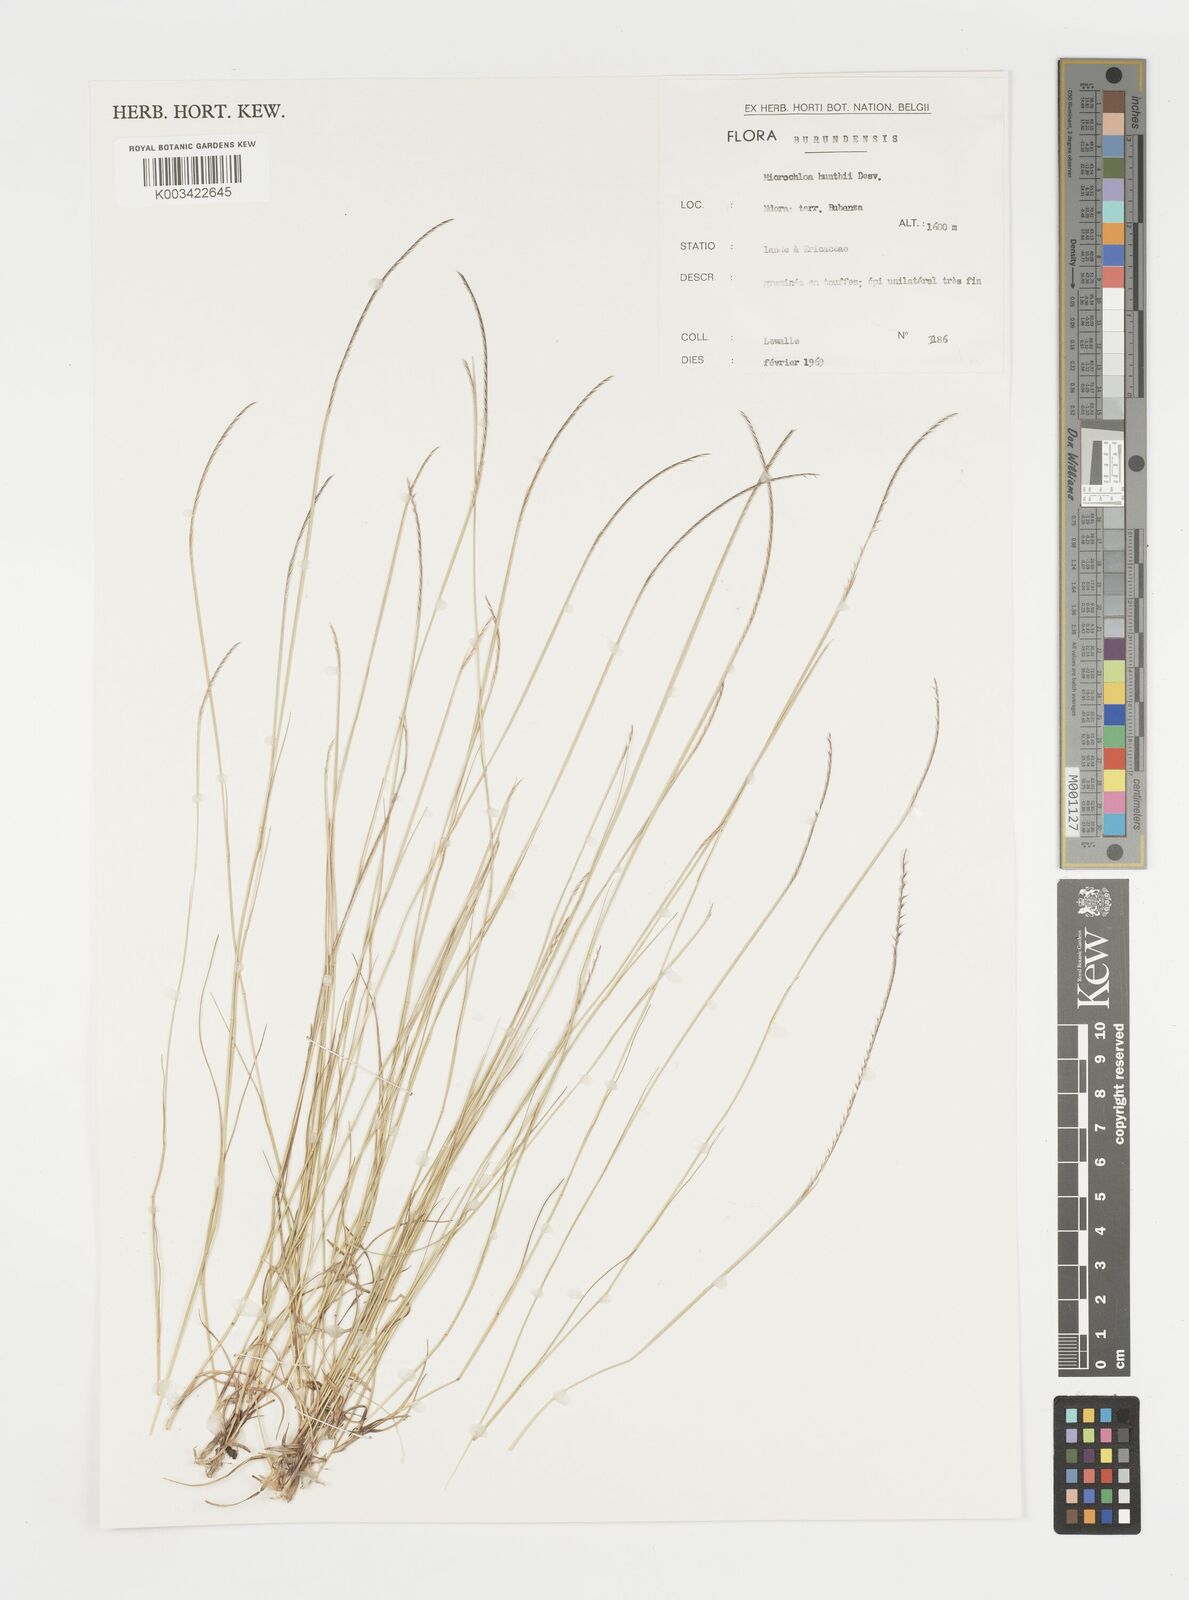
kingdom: Plantae
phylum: Tracheophyta
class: Liliopsida
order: Poales
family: Poaceae
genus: Microchloa
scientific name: Microchloa kunthii
